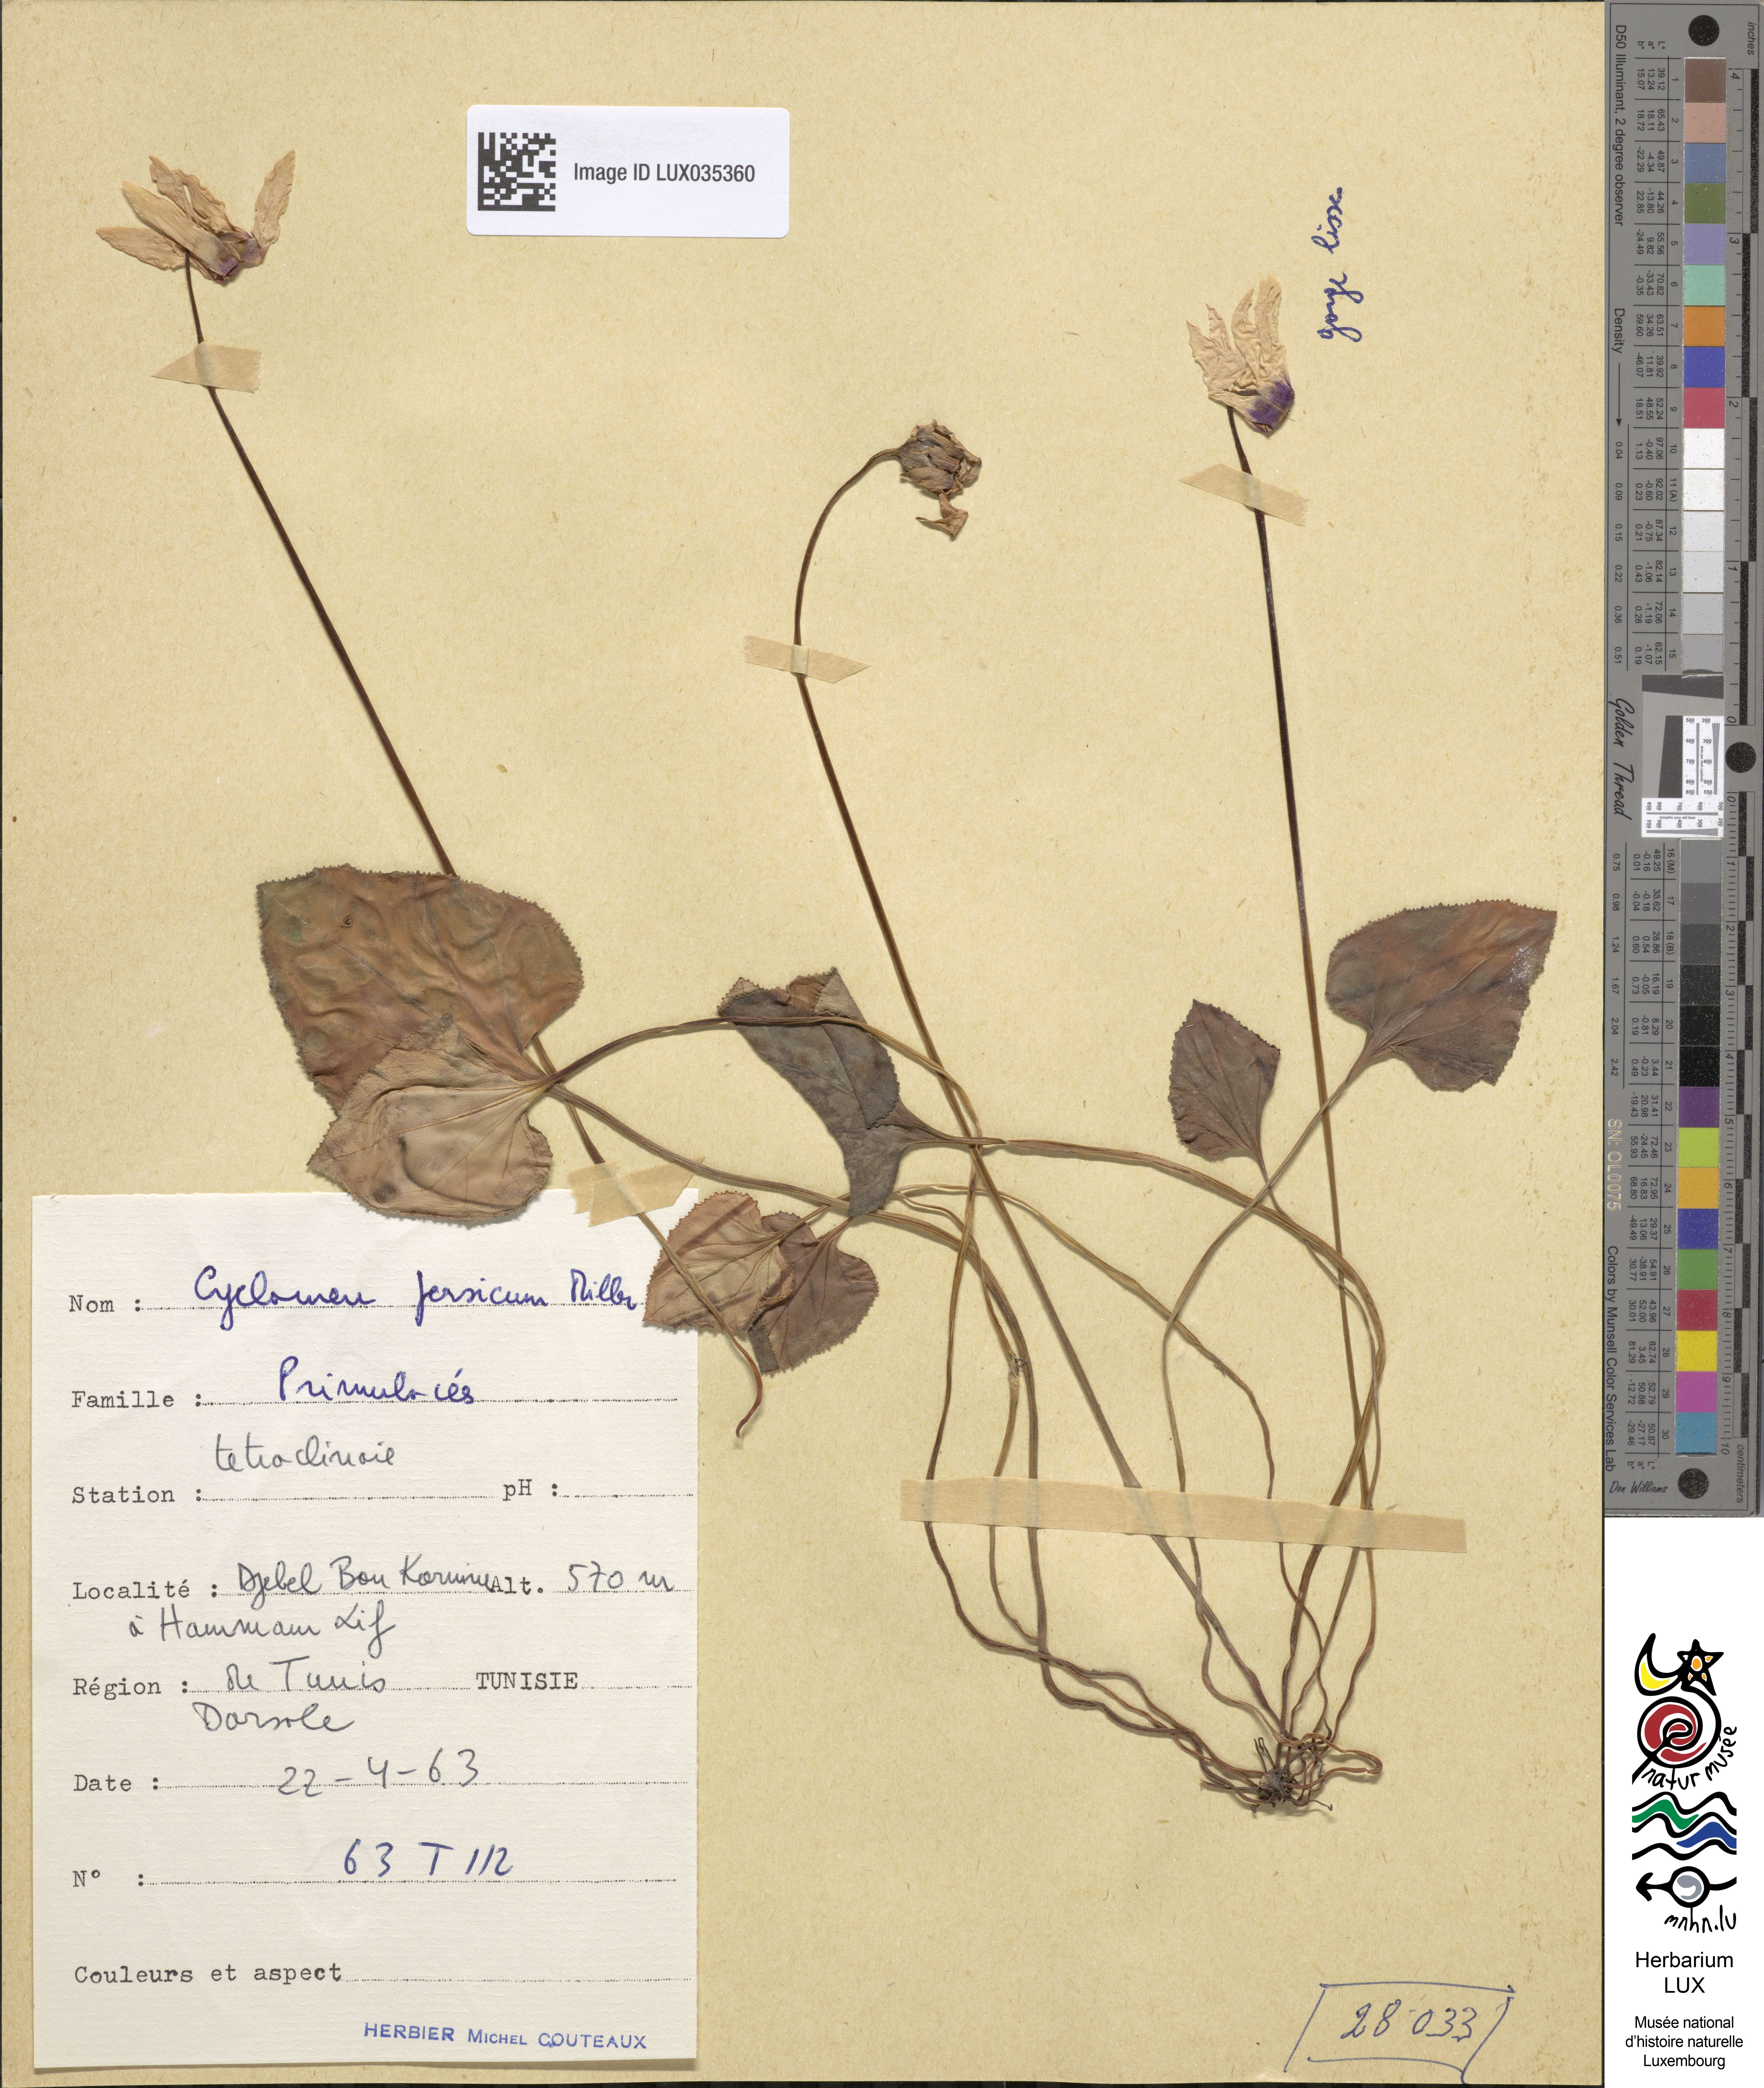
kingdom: Plantae
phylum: Tracheophyta
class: Magnoliopsida
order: Ericales
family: Primulaceae
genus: Cyclamen
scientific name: Cyclamen persicum
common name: Florist's cyclamen
